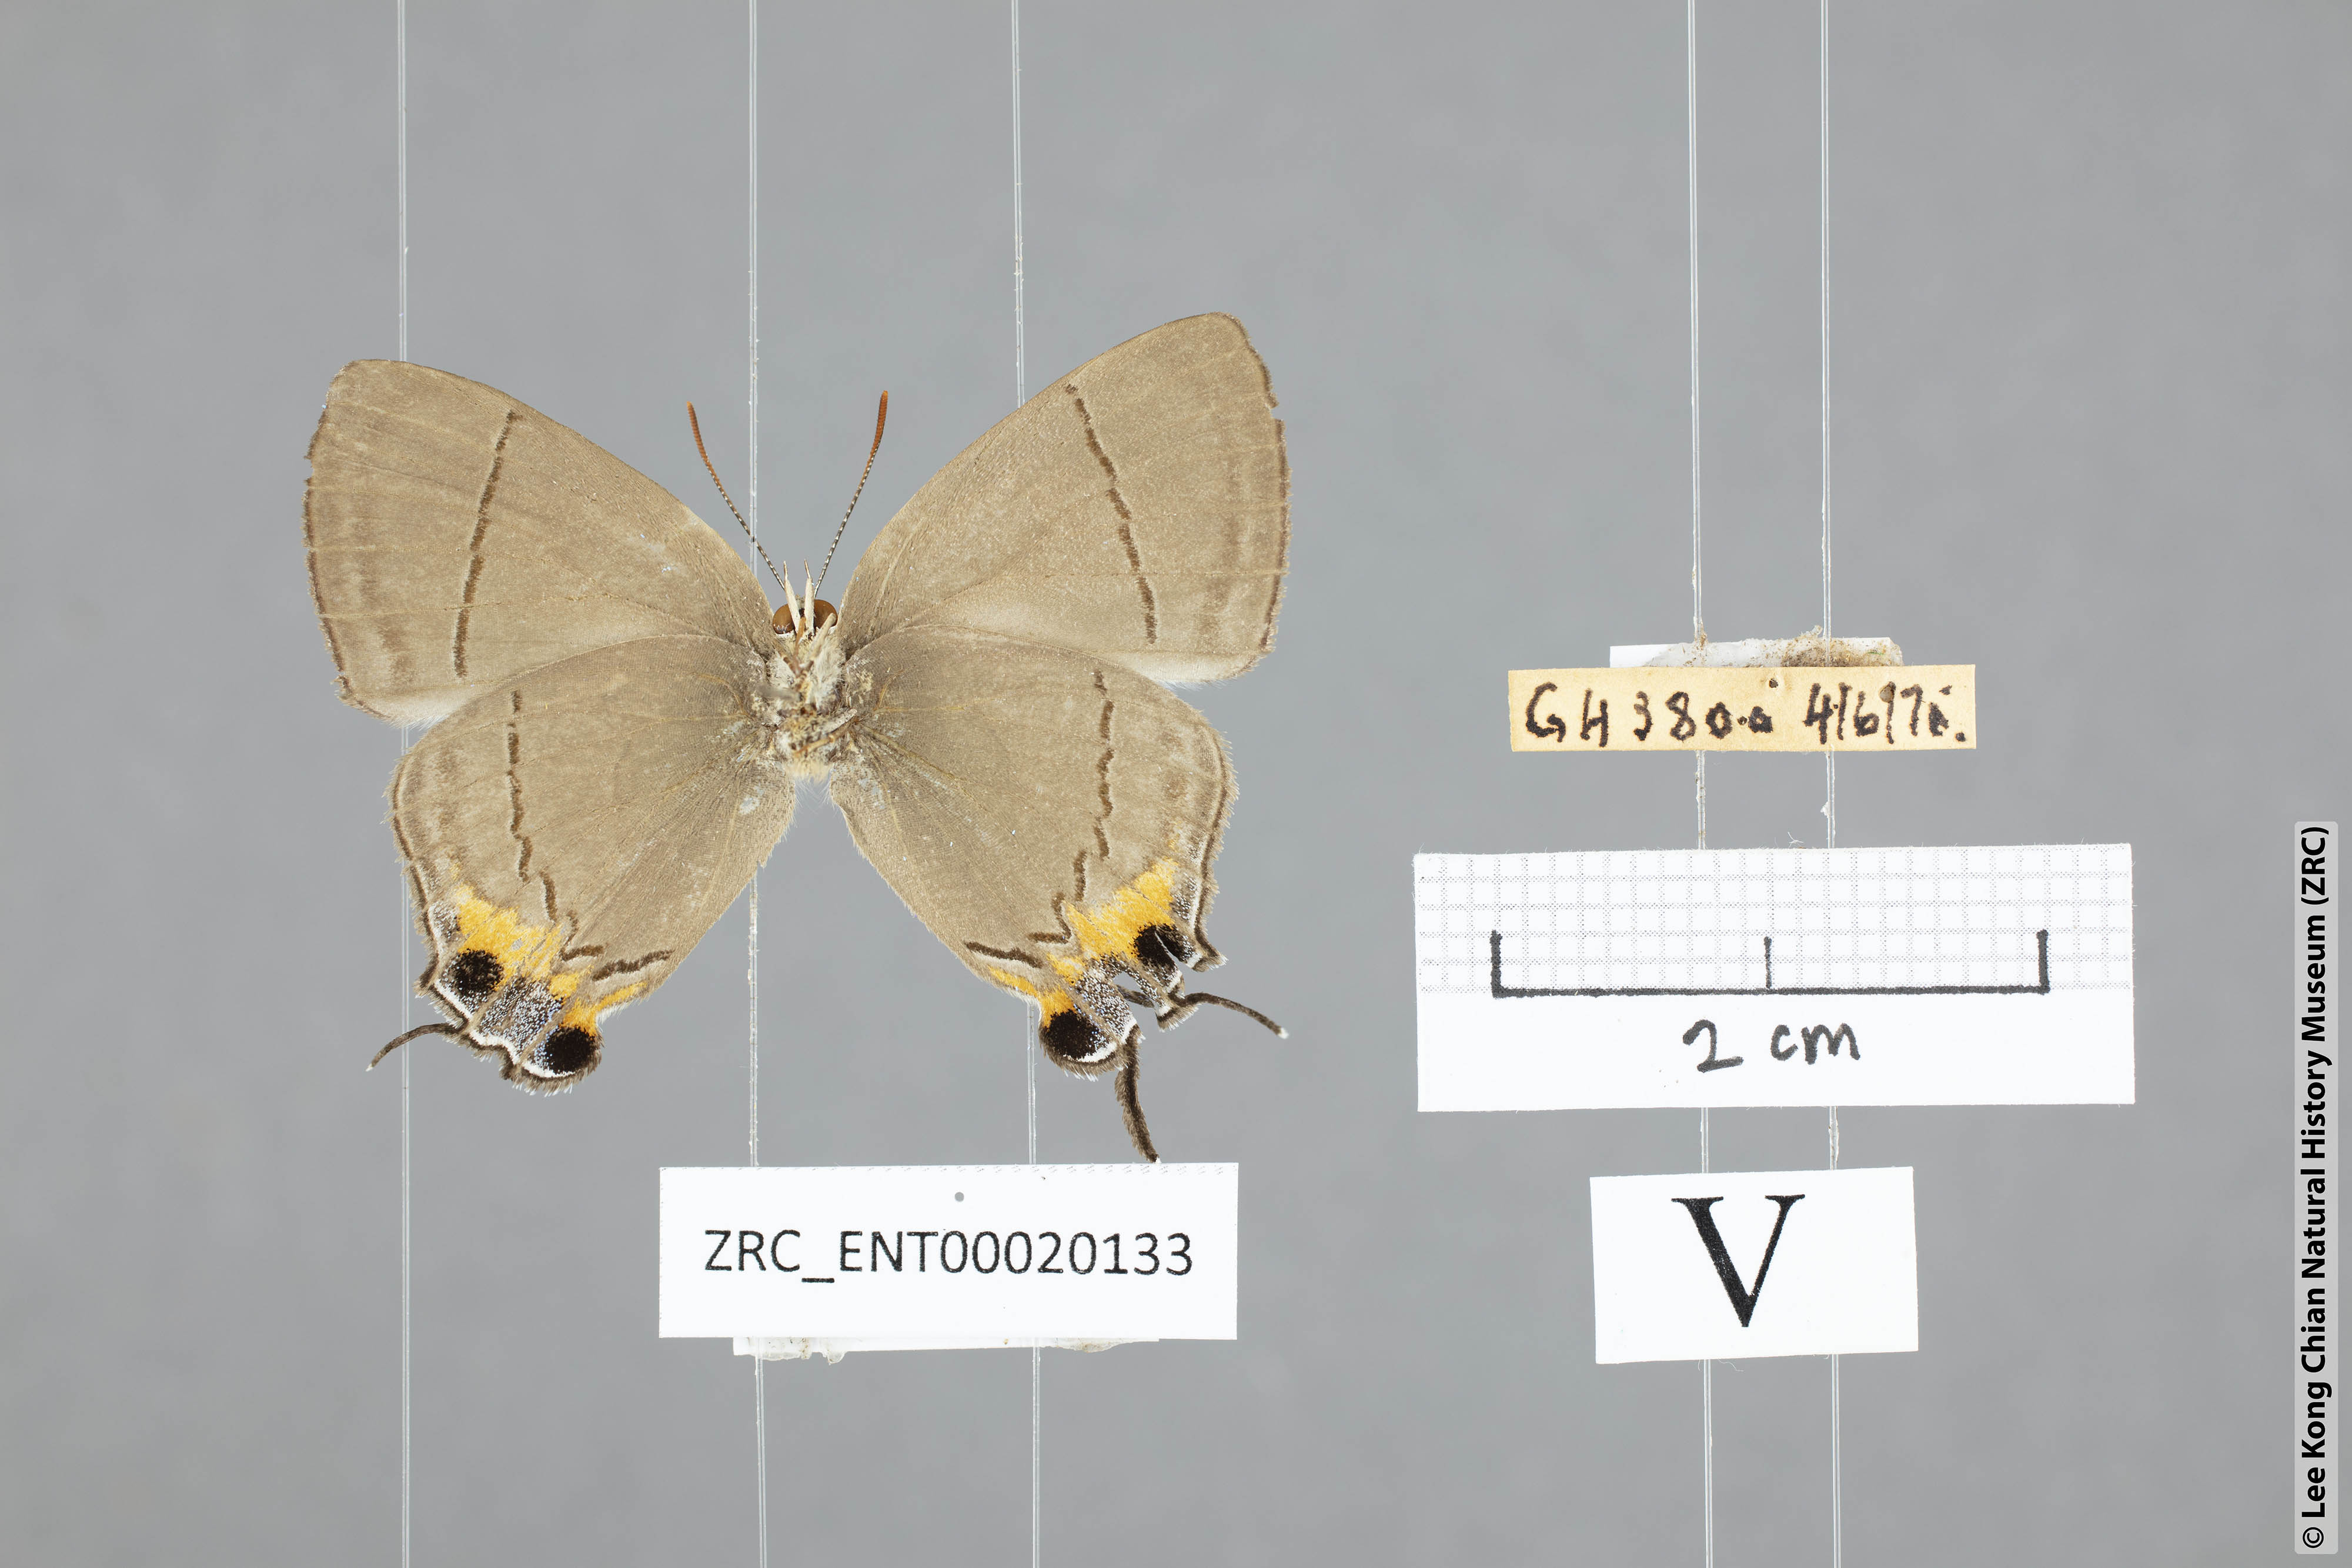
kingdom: Animalia
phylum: Arthropoda
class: Insecta
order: Lepidoptera
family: Lycaenidae
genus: Creon
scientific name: Creon cleobis
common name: Broad-tail royal
